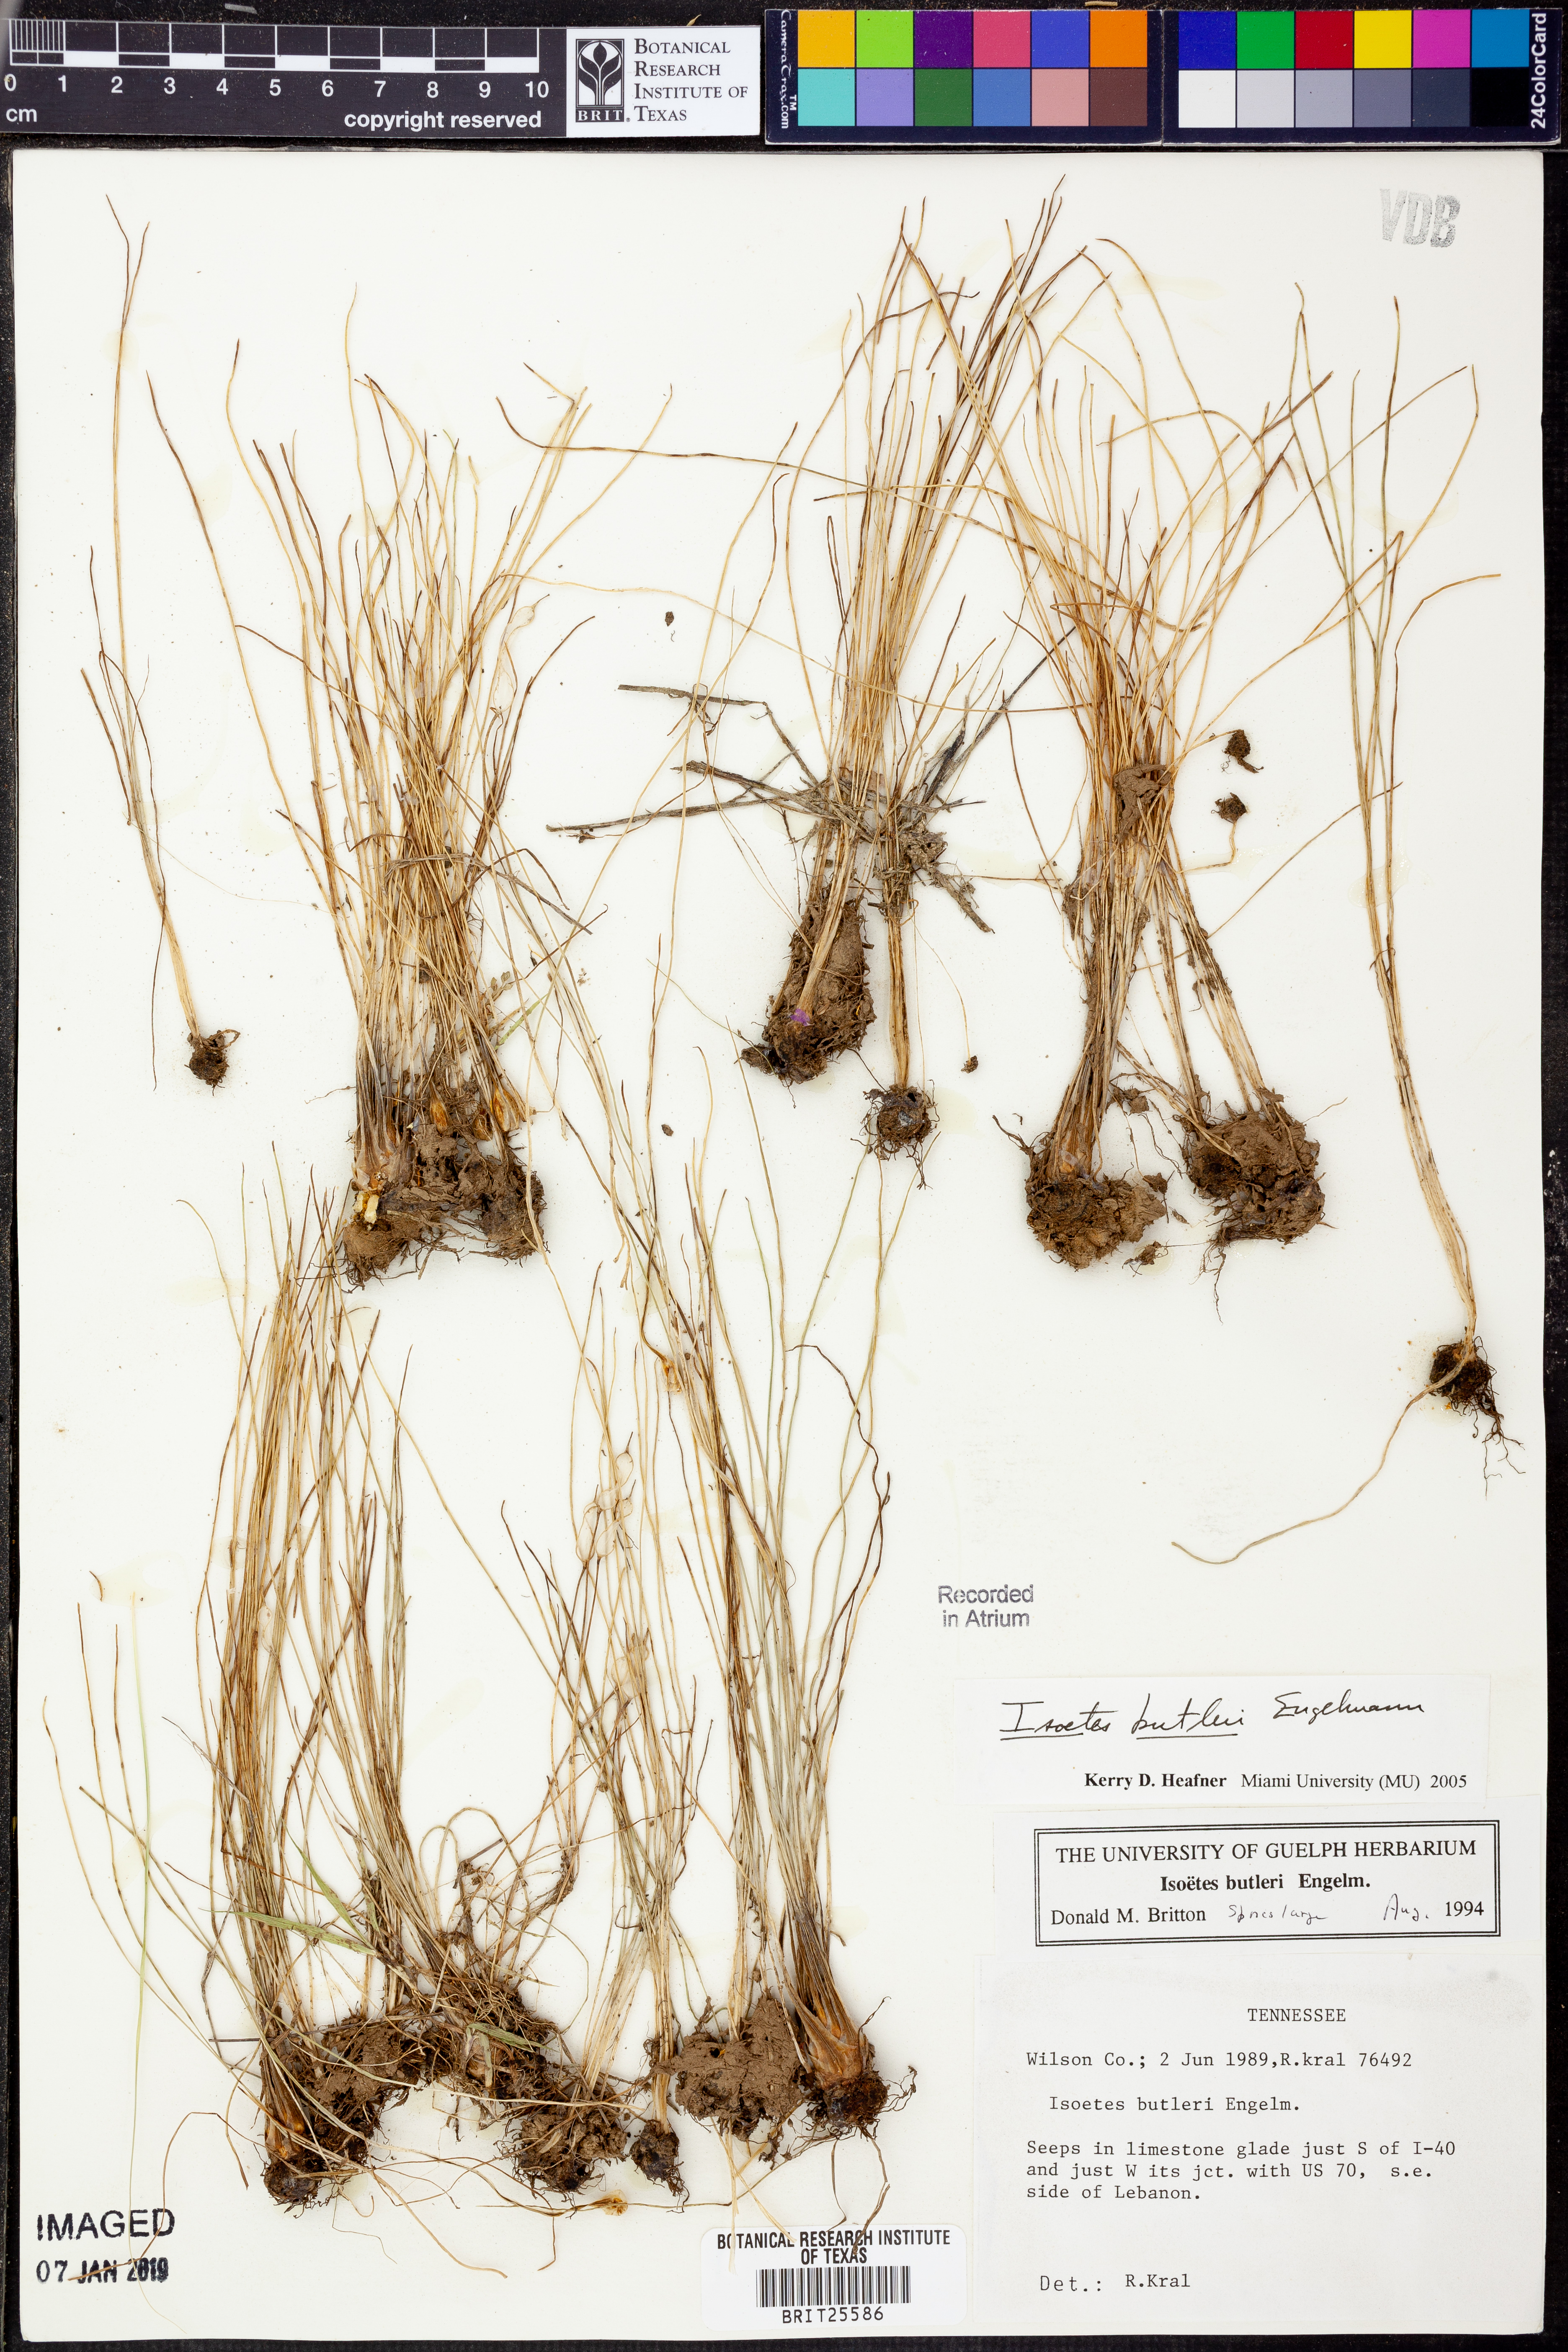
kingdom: Plantae
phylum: Tracheophyta
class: Lycopodiopsida
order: Isoetales
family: Isoetaceae
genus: Isoetes
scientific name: Isoetes butleri
